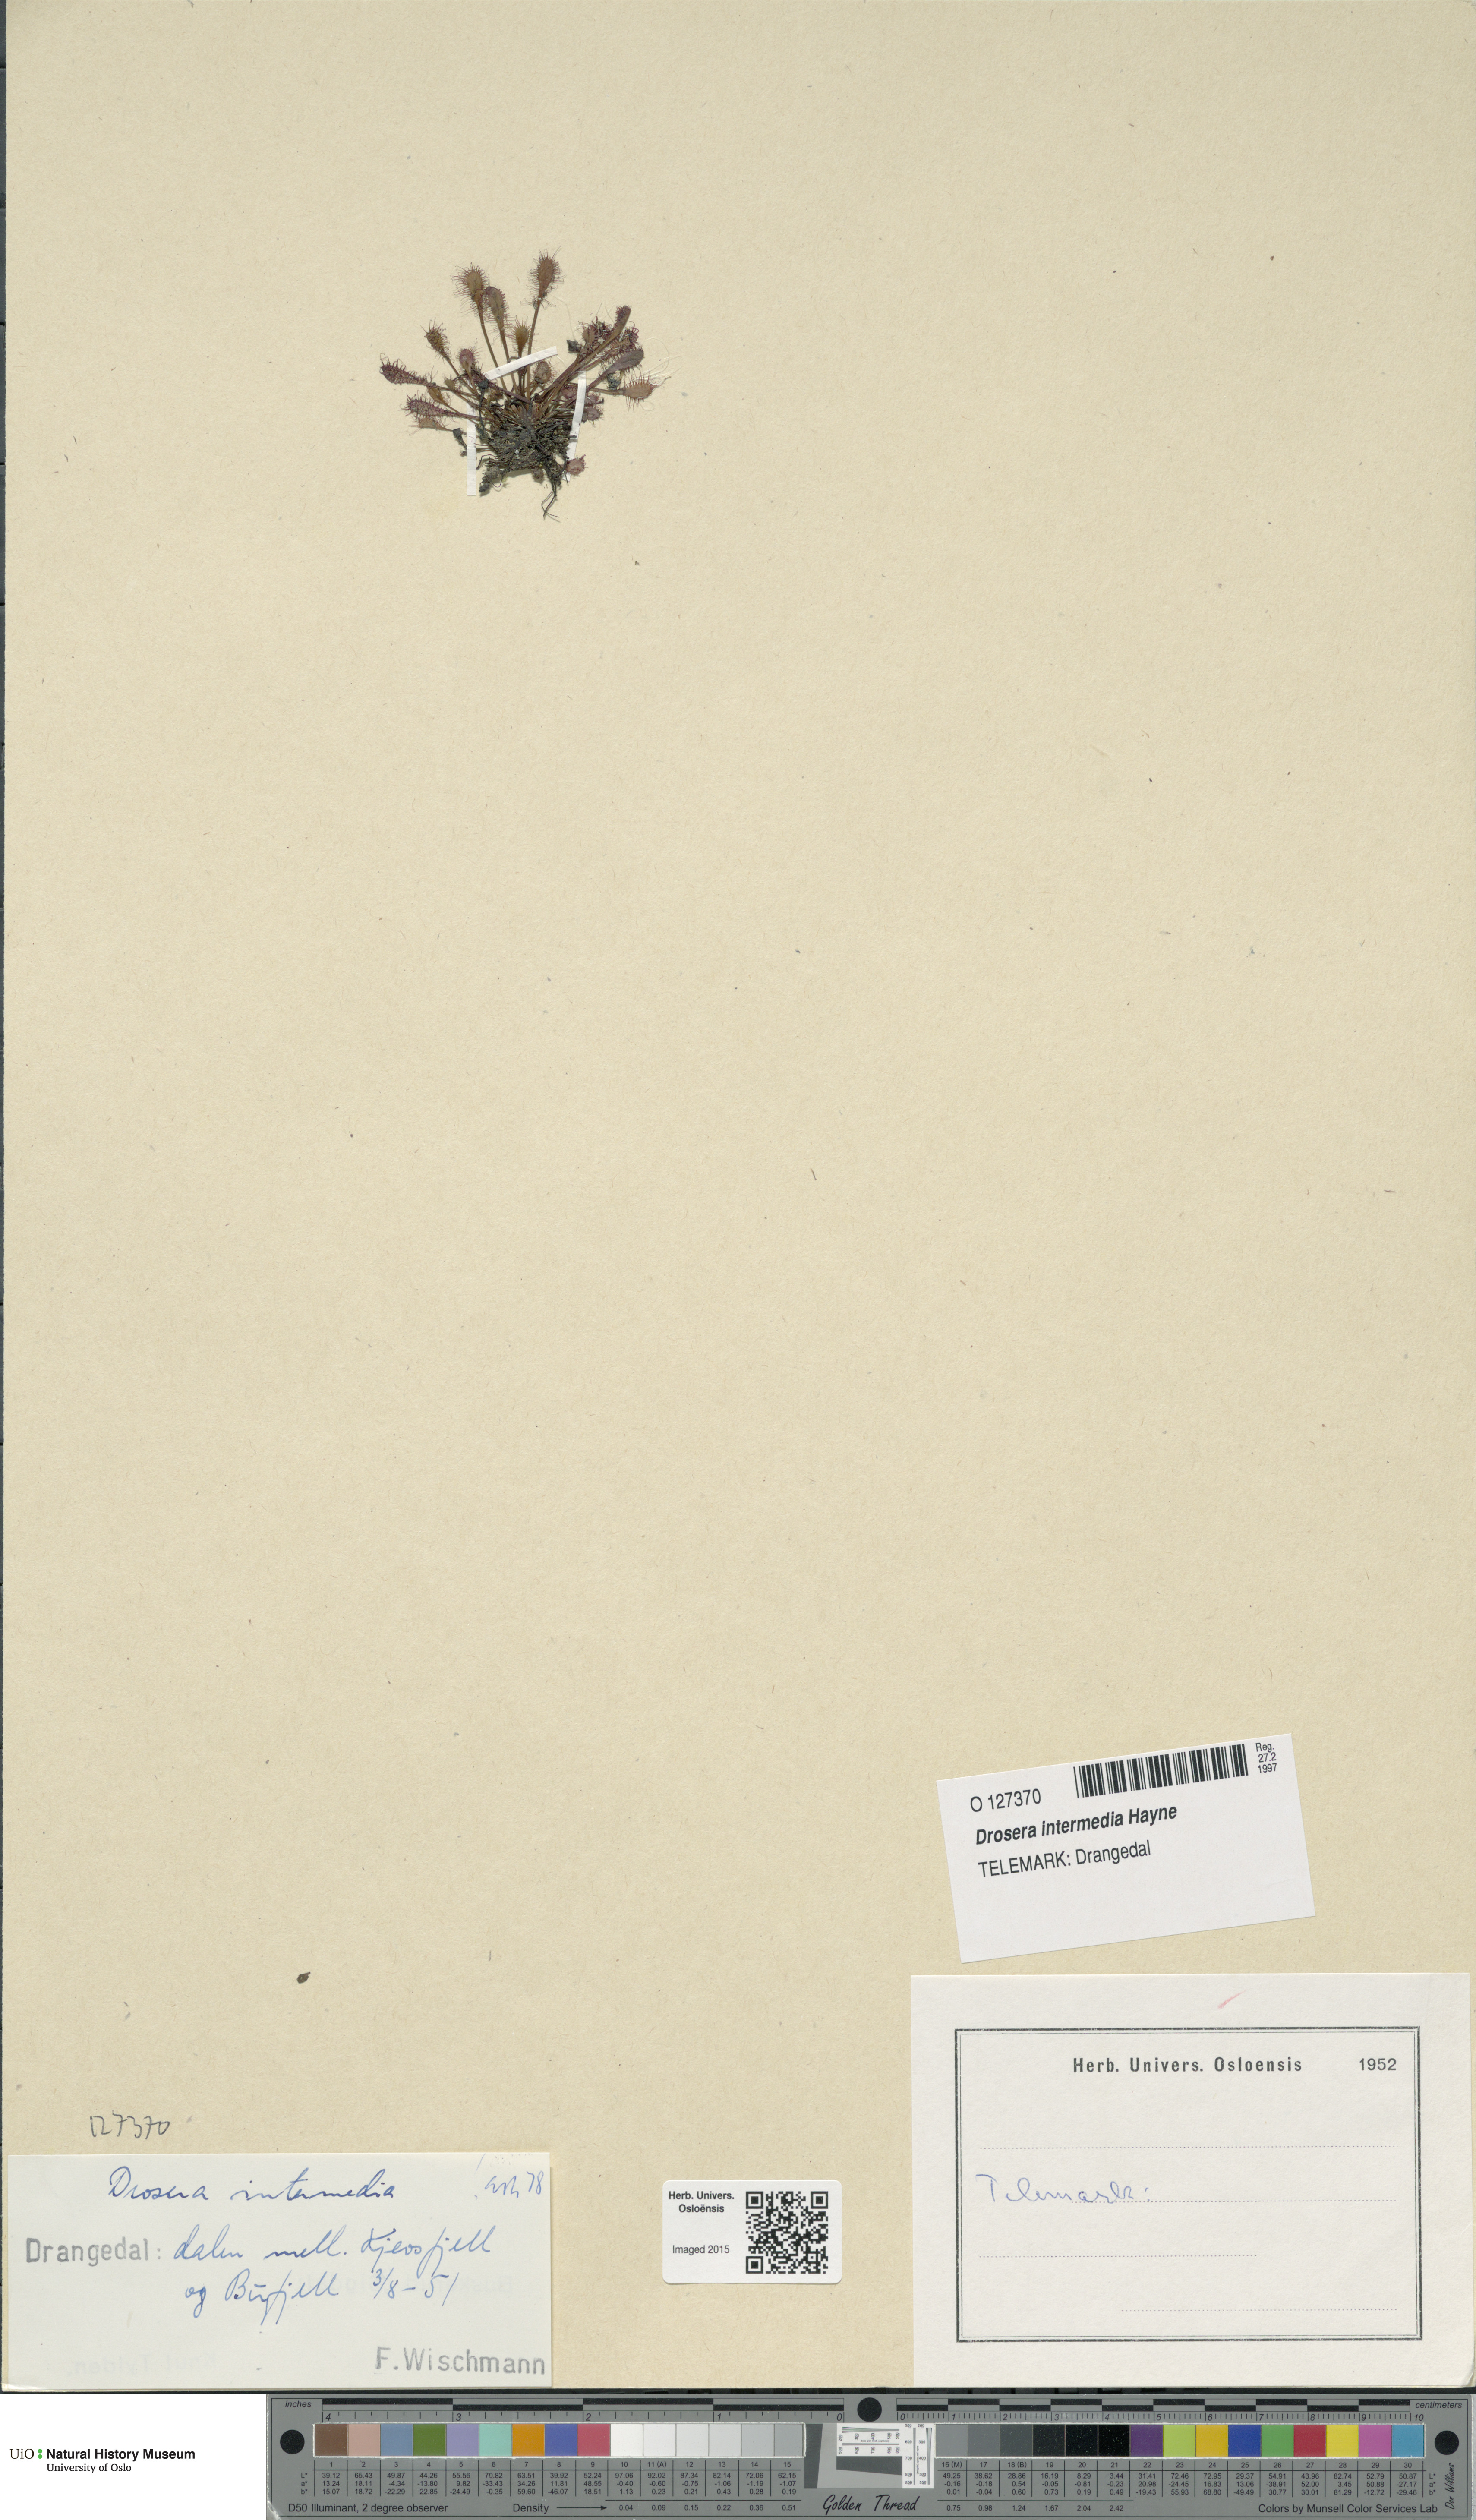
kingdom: Plantae
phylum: Tracheophyta
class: Magnoliopsida
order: Caryophyllales
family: Droseraceae
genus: Drosera
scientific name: Drosera intermedia
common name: Oblong-leaved sundew
